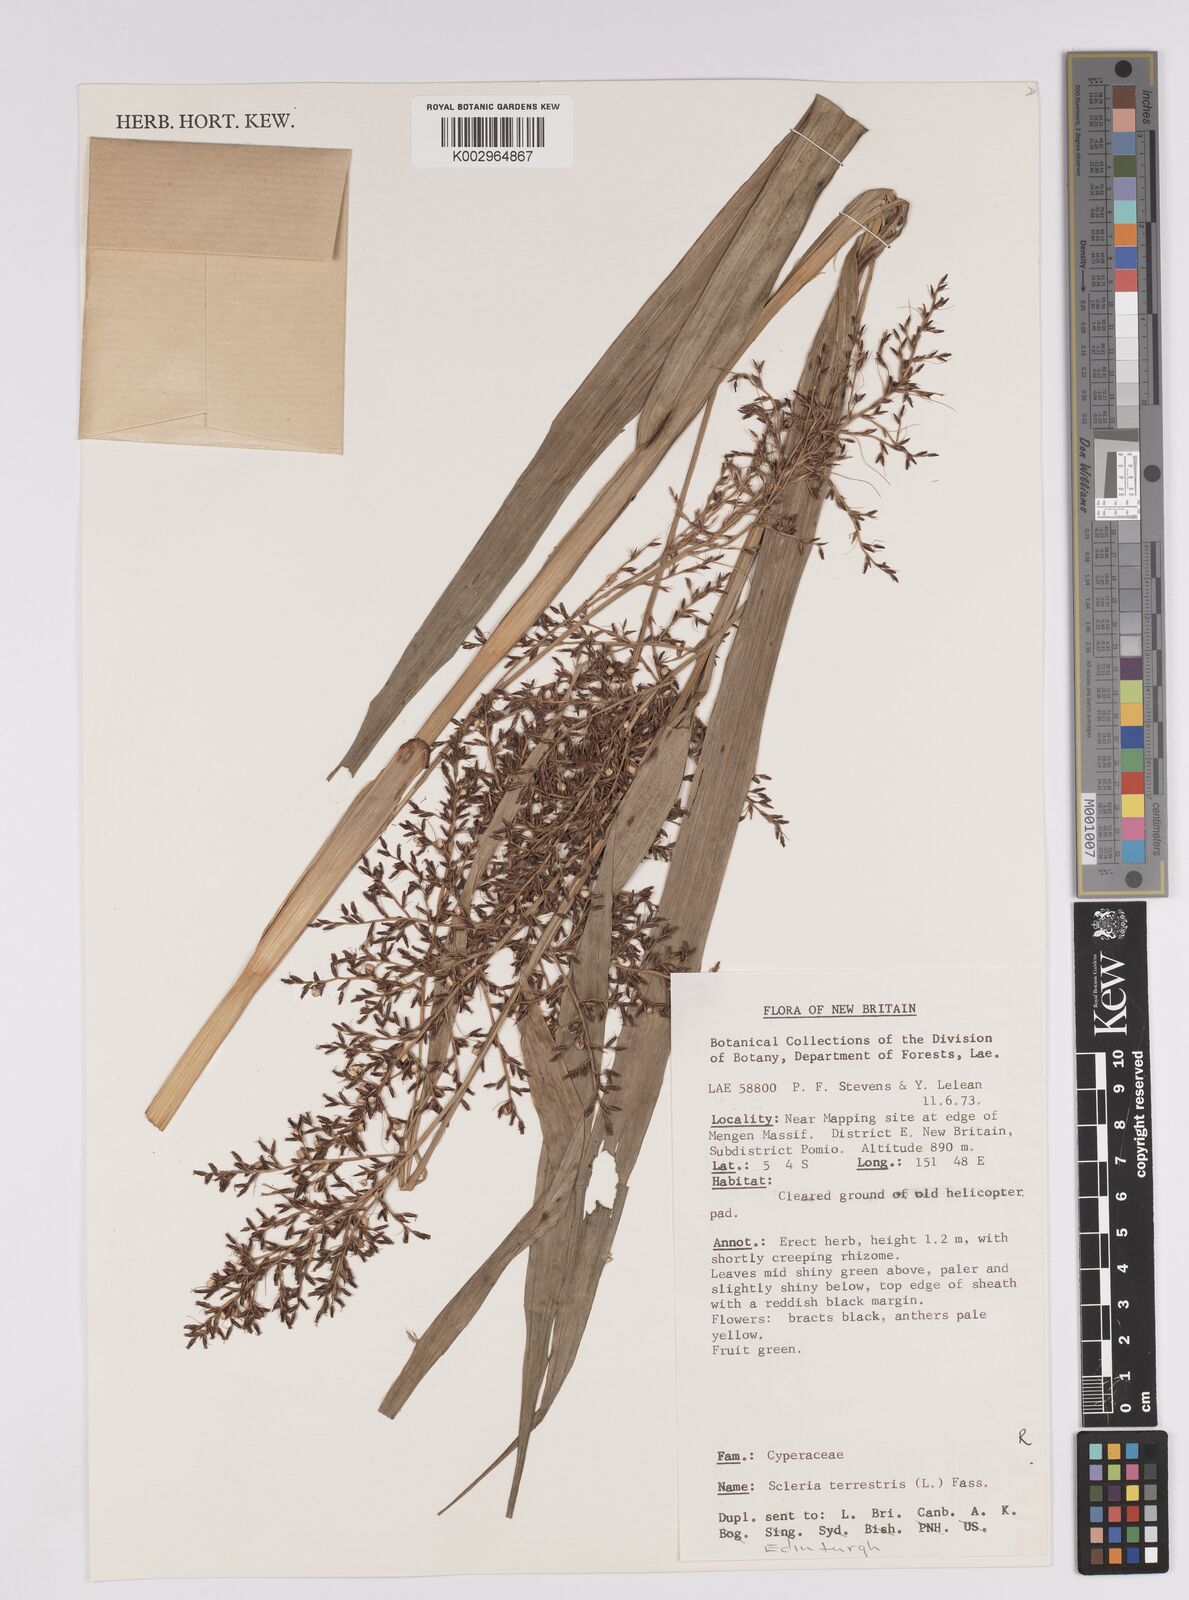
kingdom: Plantae
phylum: Tracheophyta
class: Liliopsida
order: Poales
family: Cyperaceae
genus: Scleria
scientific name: Scleria terrestris
